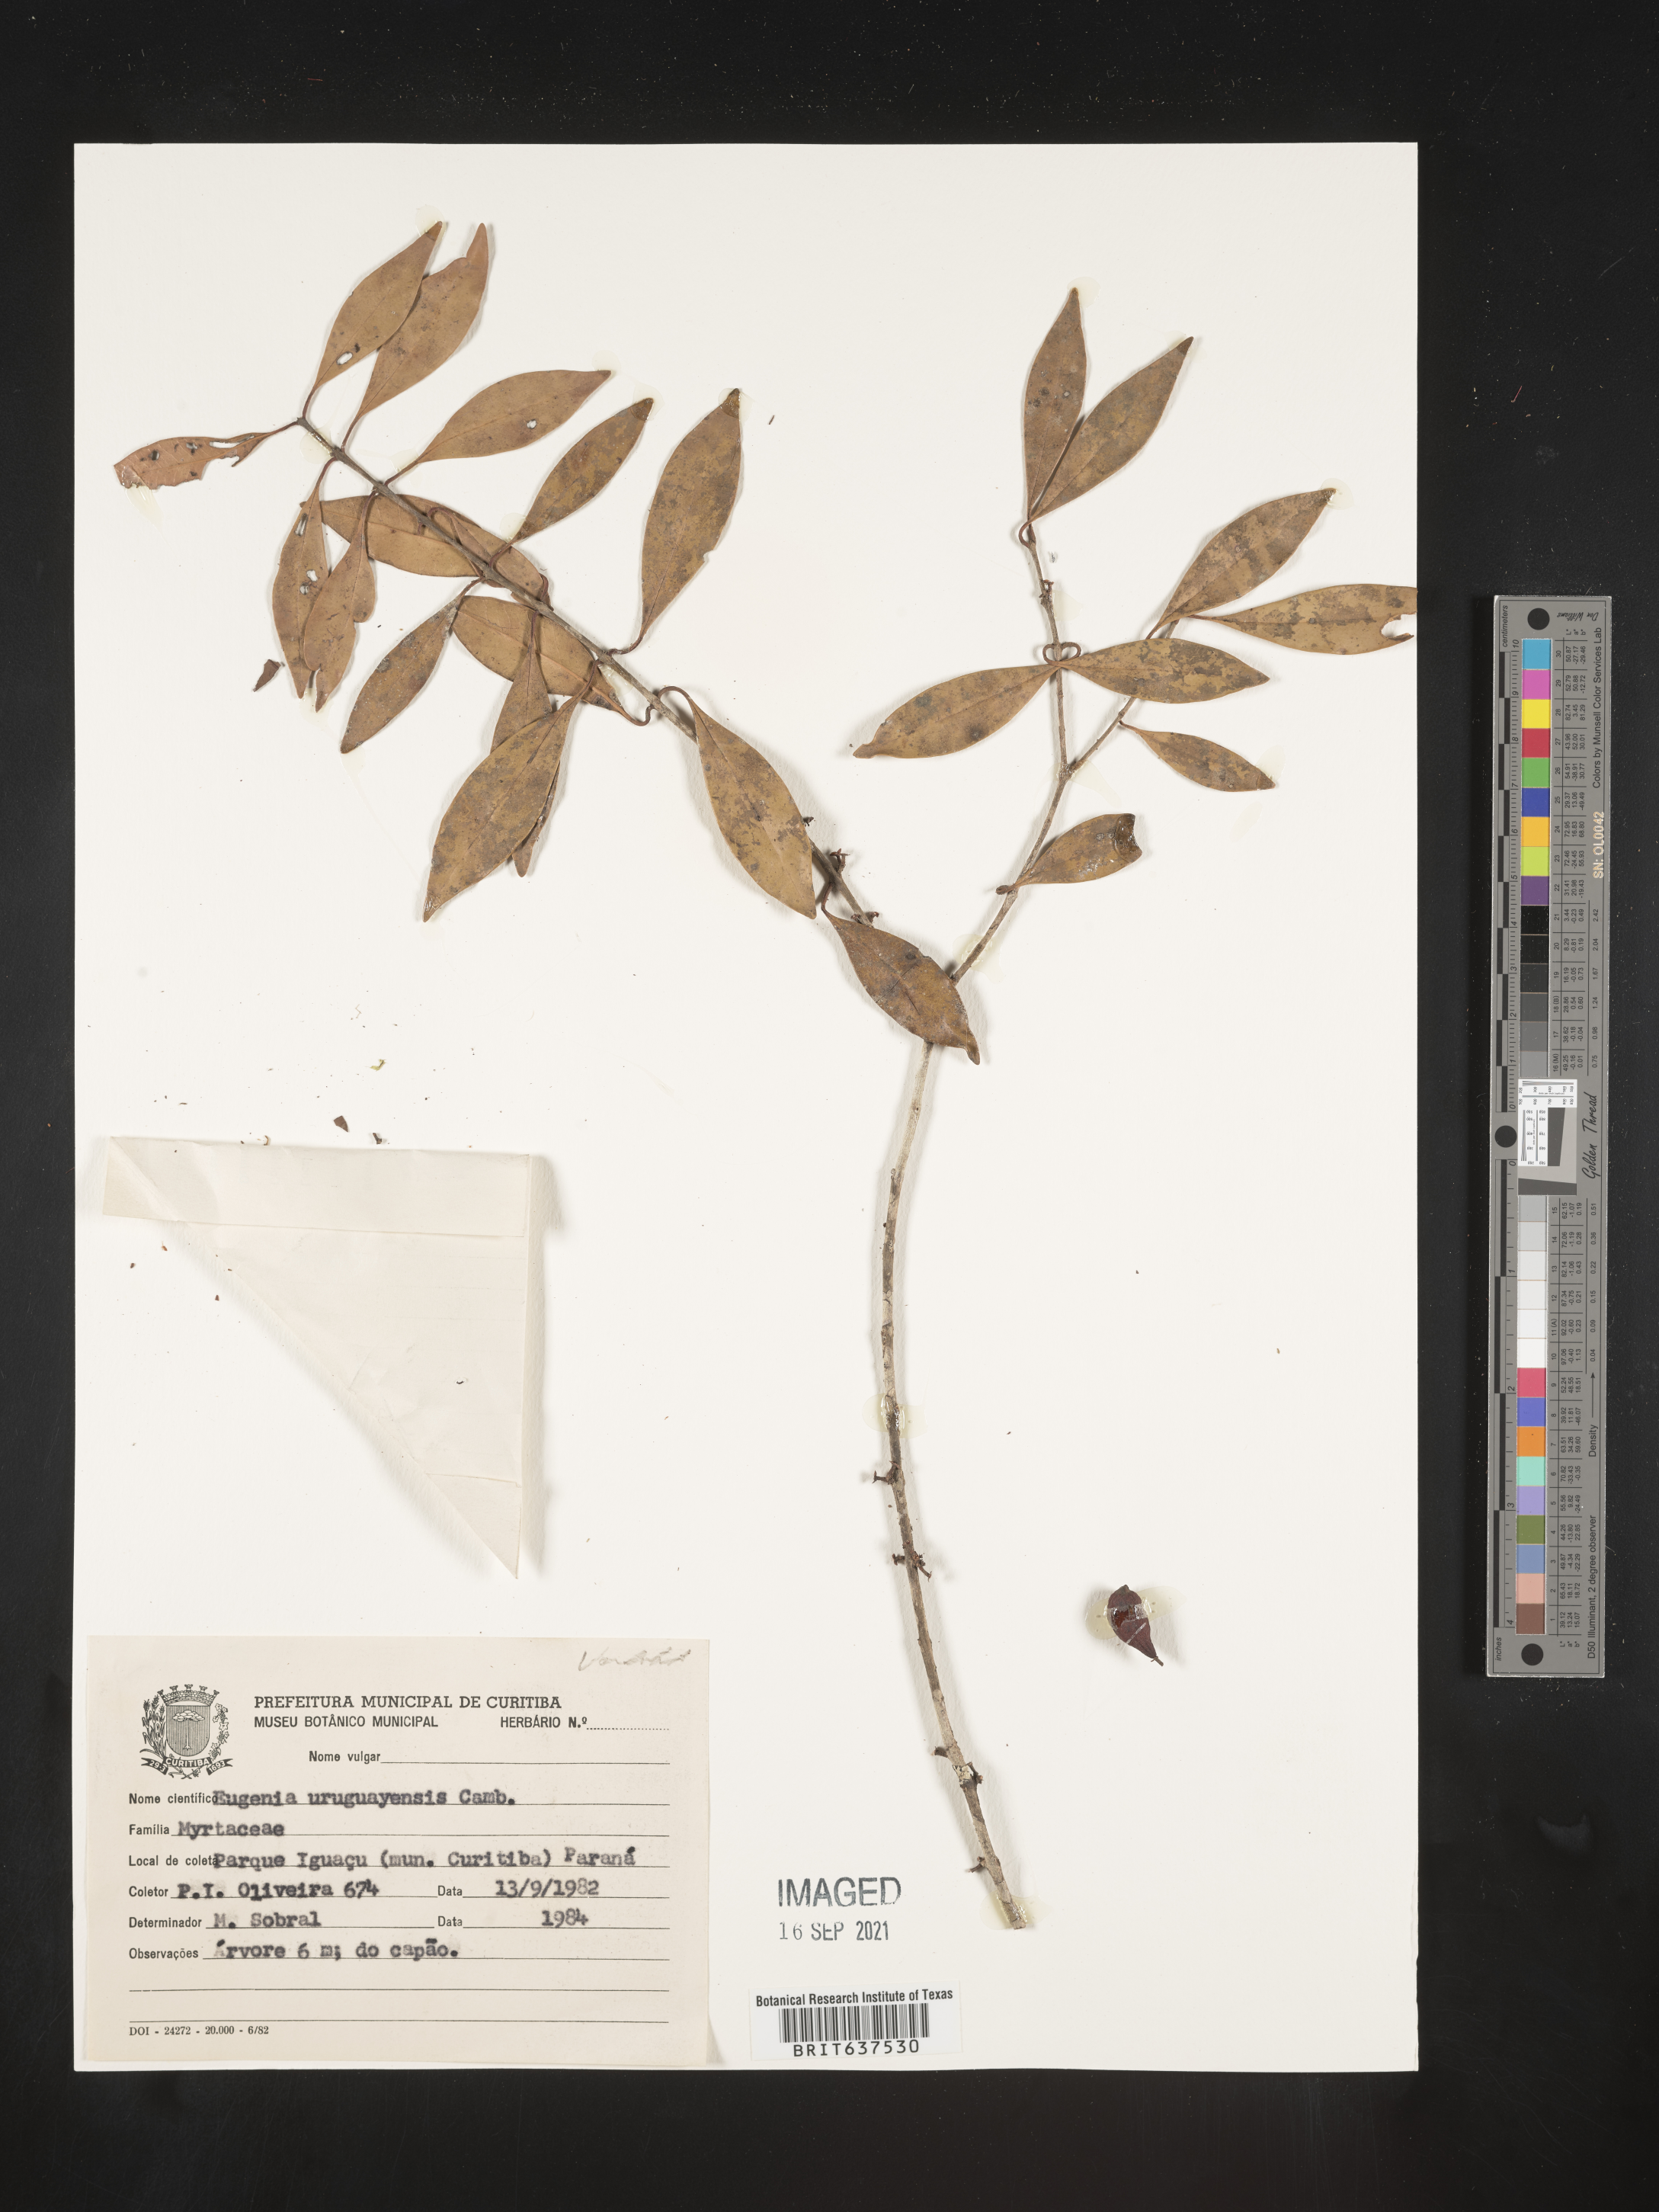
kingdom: Plantae
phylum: Tracheophyta
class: Magnoliopsida
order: Myrtales
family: Myrtaceae
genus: Eugenia
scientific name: Eugenia
